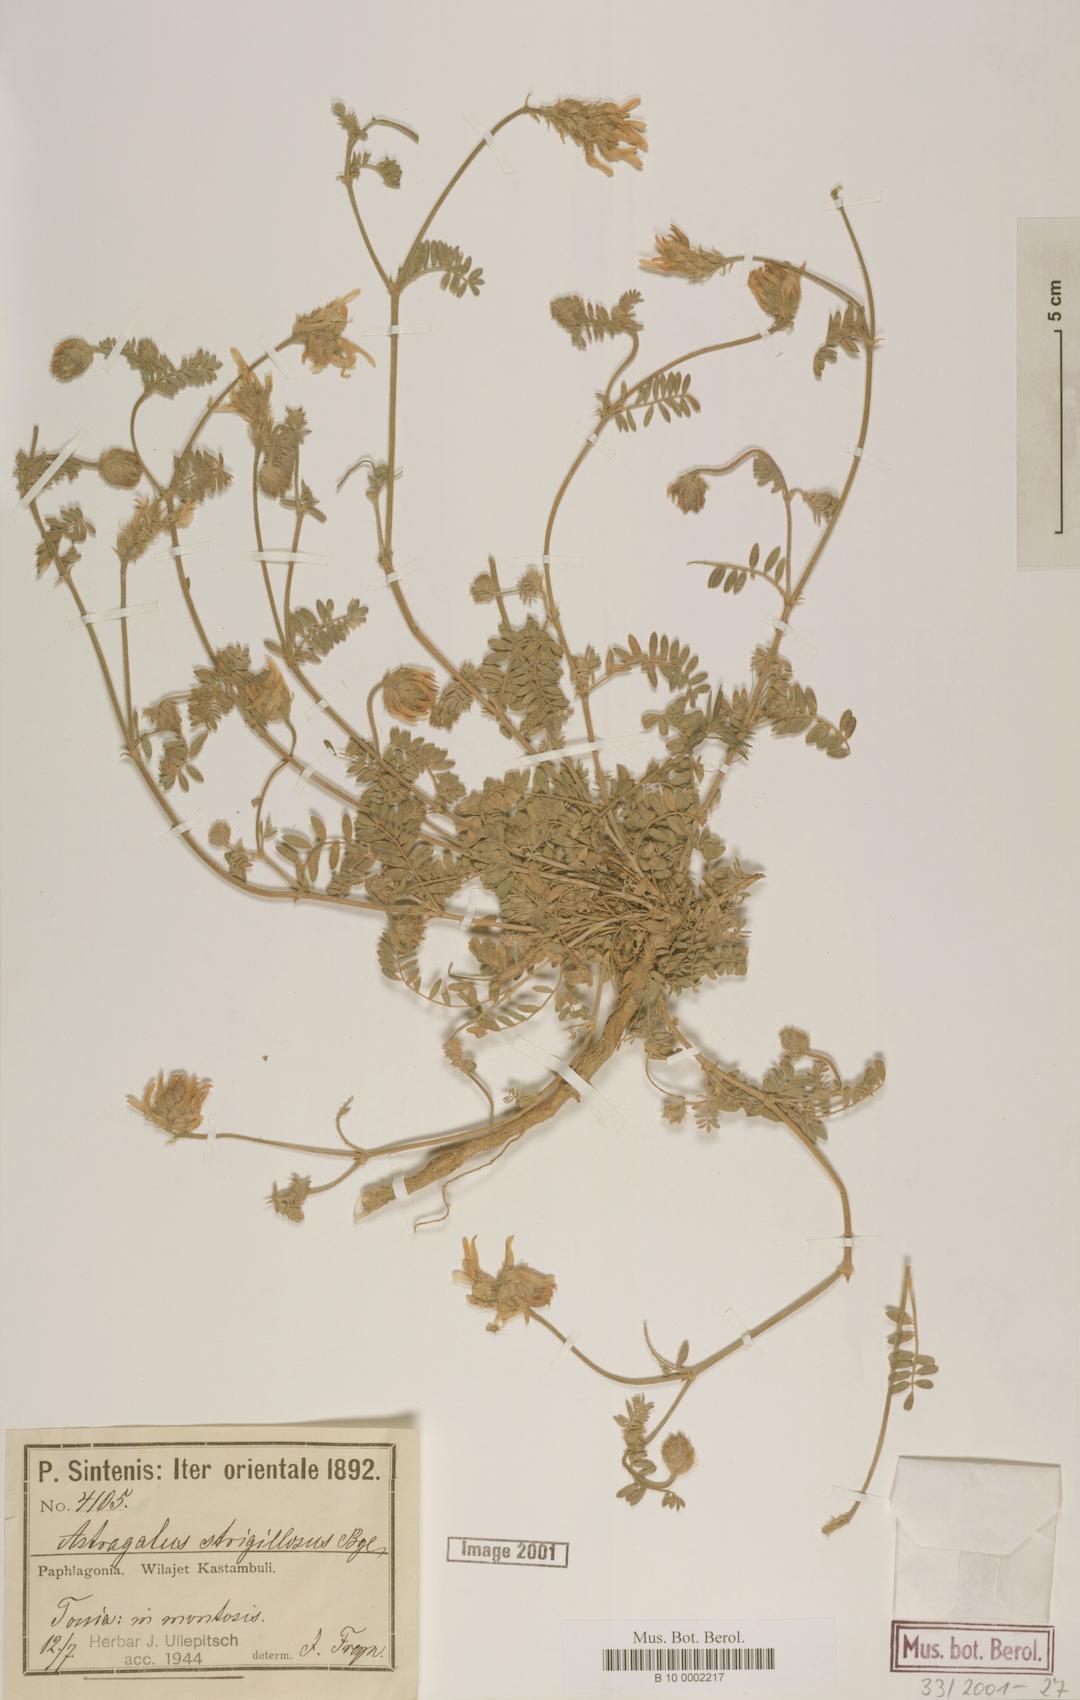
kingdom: Plantae
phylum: Tracheophyta
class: Magnoliopsida
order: Fabales
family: Fabaceae
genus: Astragalus
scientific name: Astragalus strigillosus
